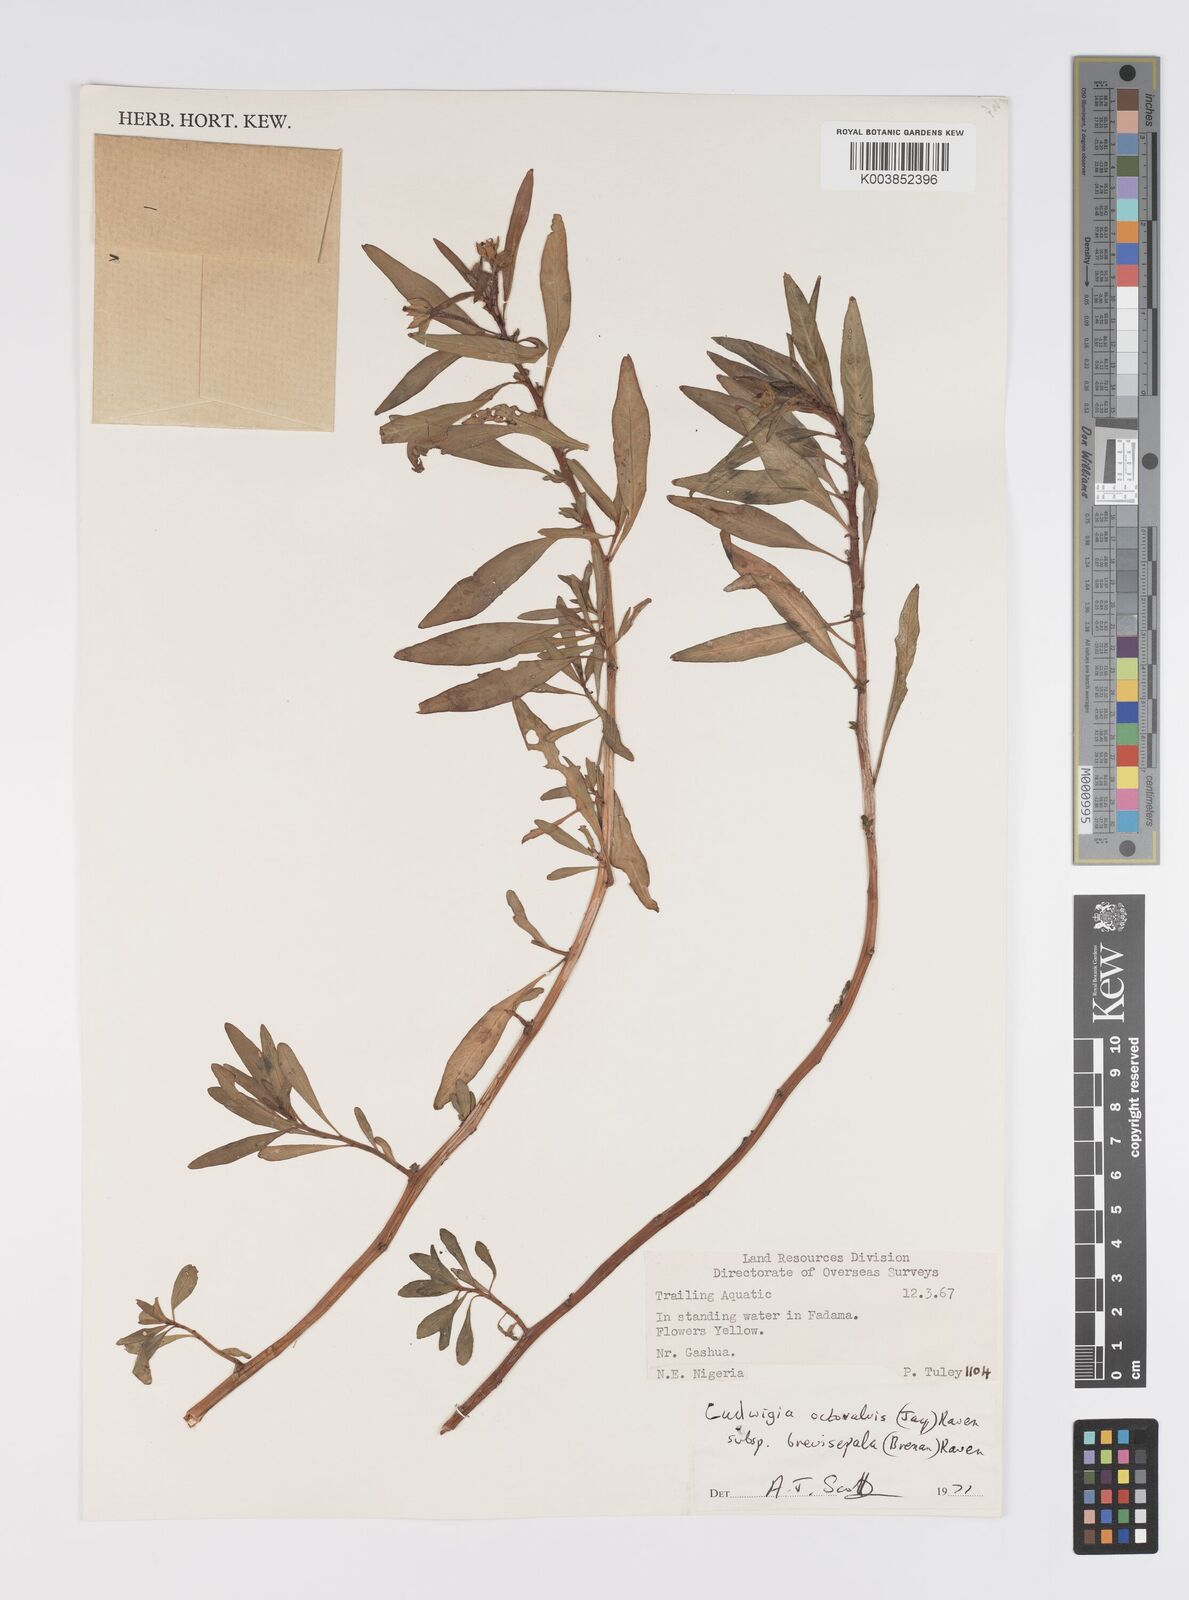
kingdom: Plantae
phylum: Tracheophyta
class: Magnoliopsida
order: Myrtales
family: Onagraceae
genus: Ludwigia
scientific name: Ludwigia octovalvis
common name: Water-primrose
